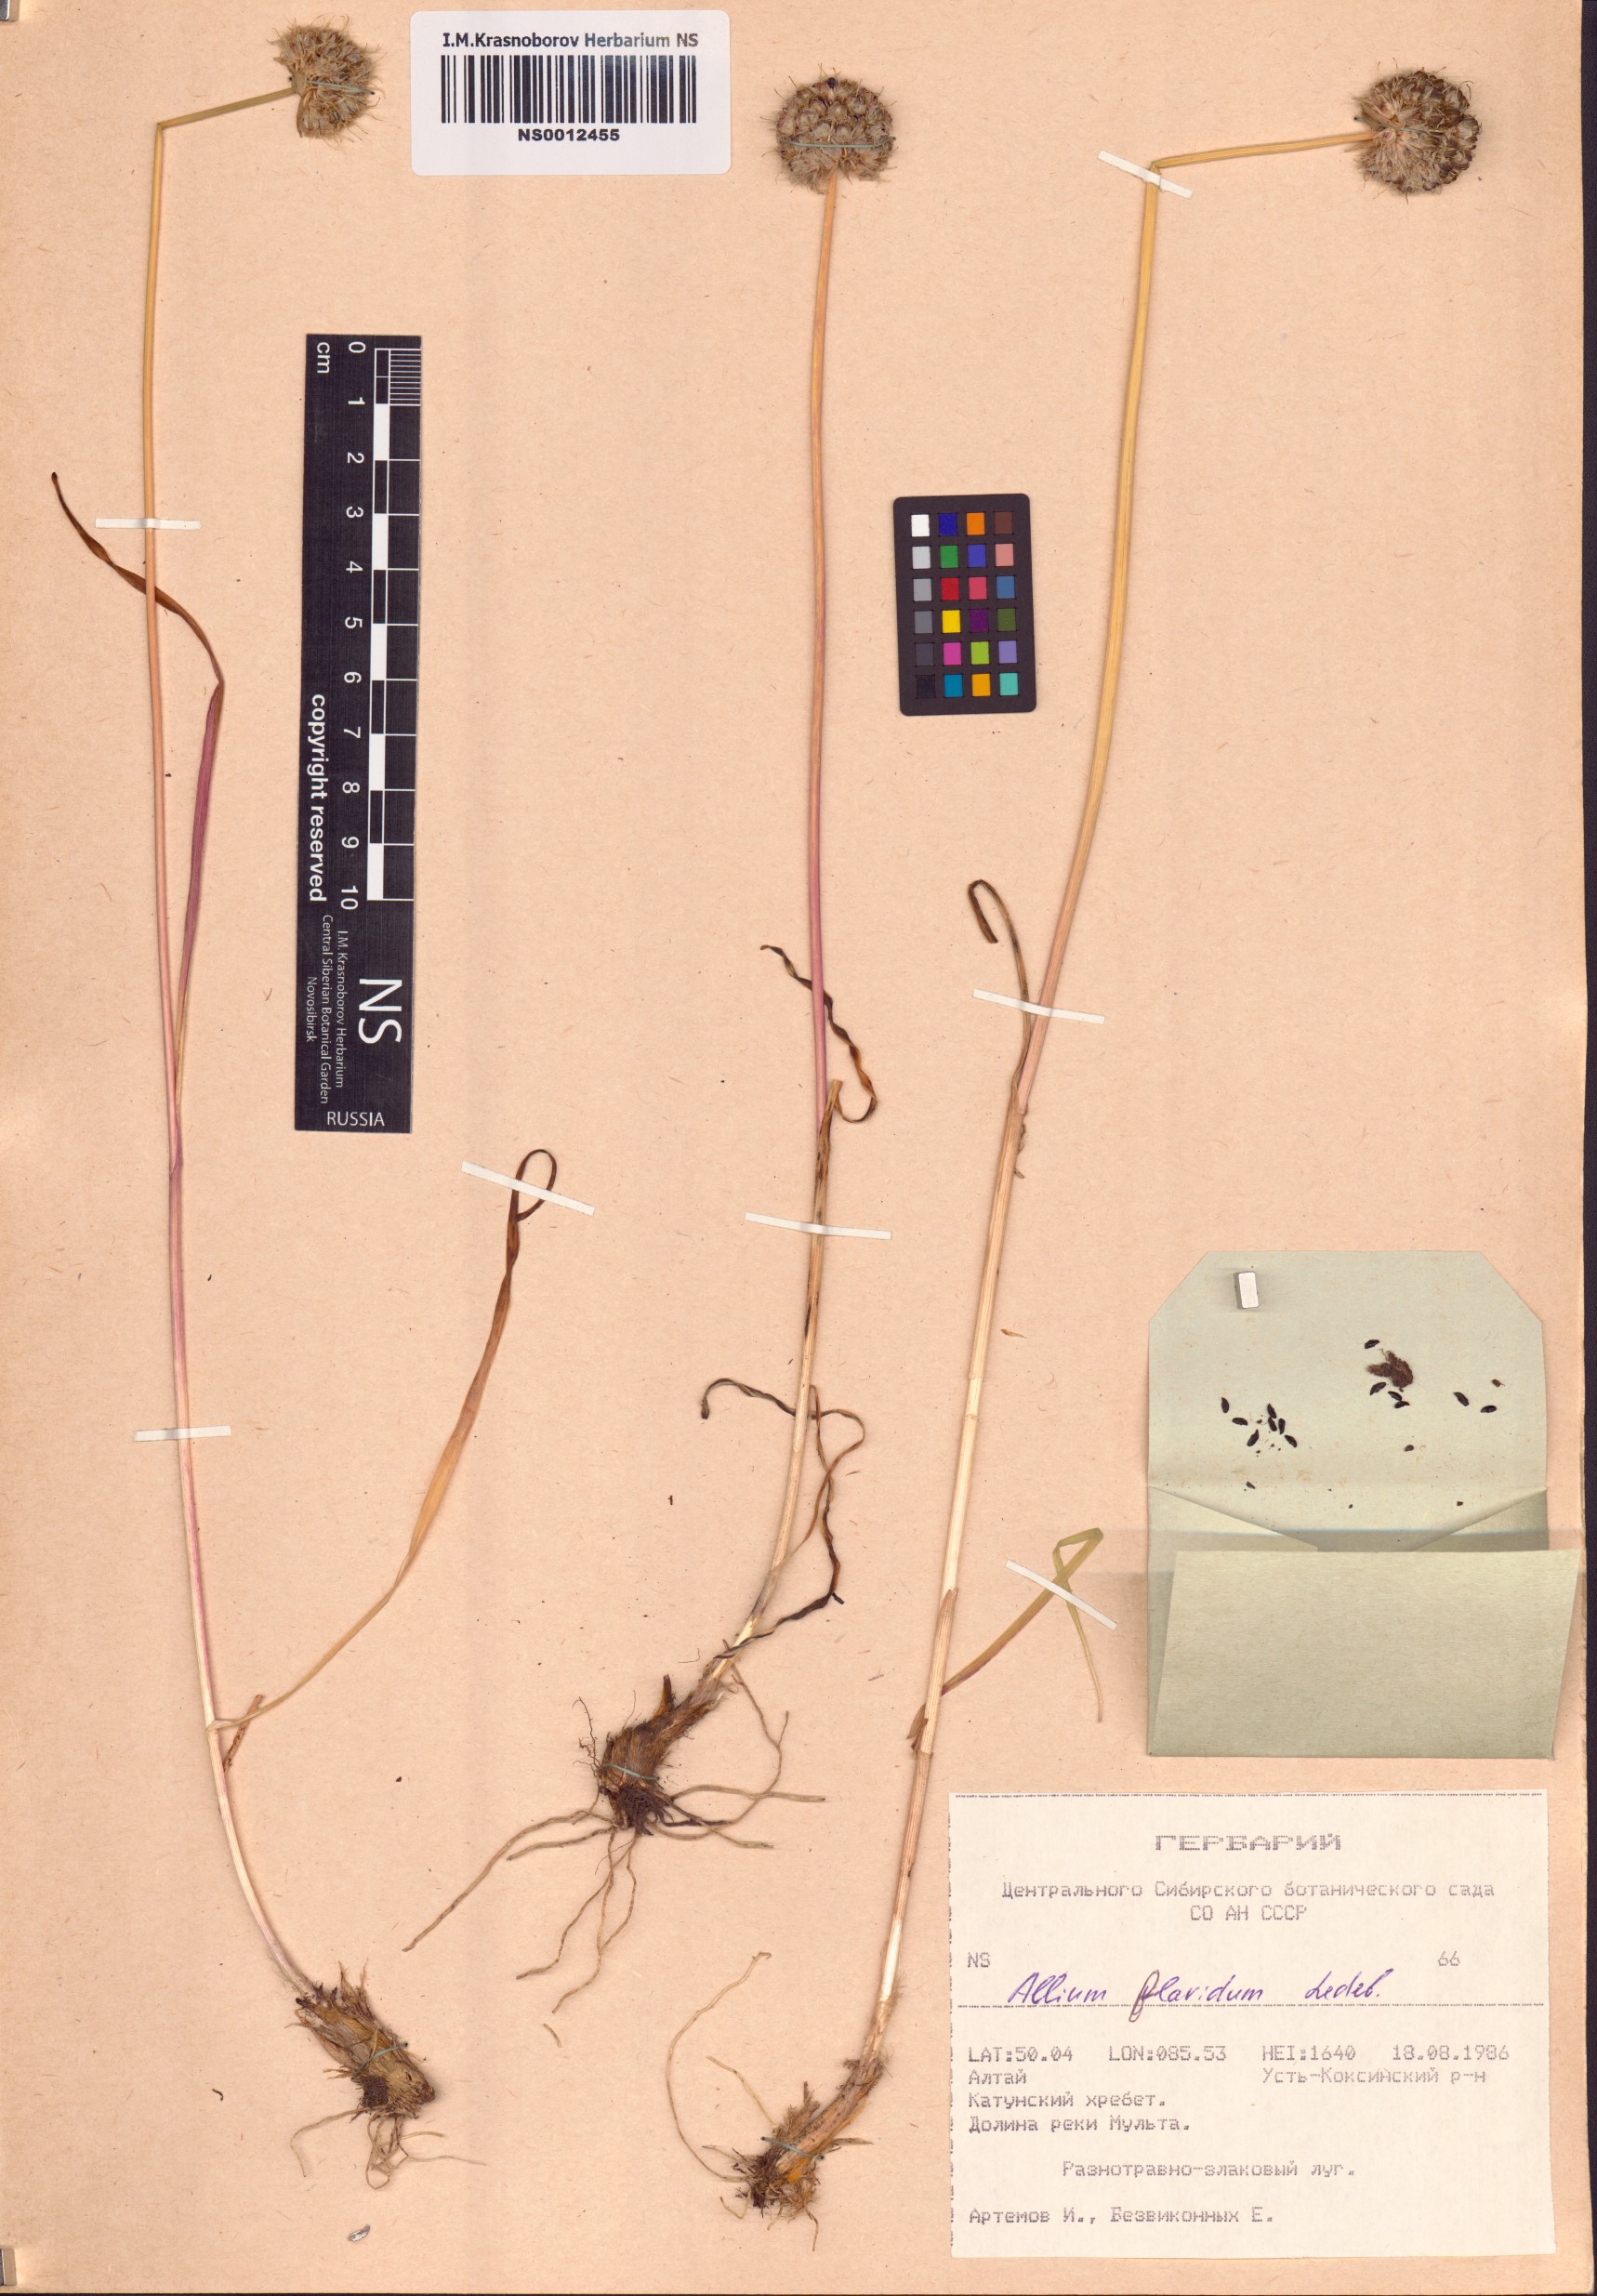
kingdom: Plantae
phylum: Tracheophyta
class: Liliopsida
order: Asparagales
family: Amaryllidaceae
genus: Allium
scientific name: Allium flavidum
